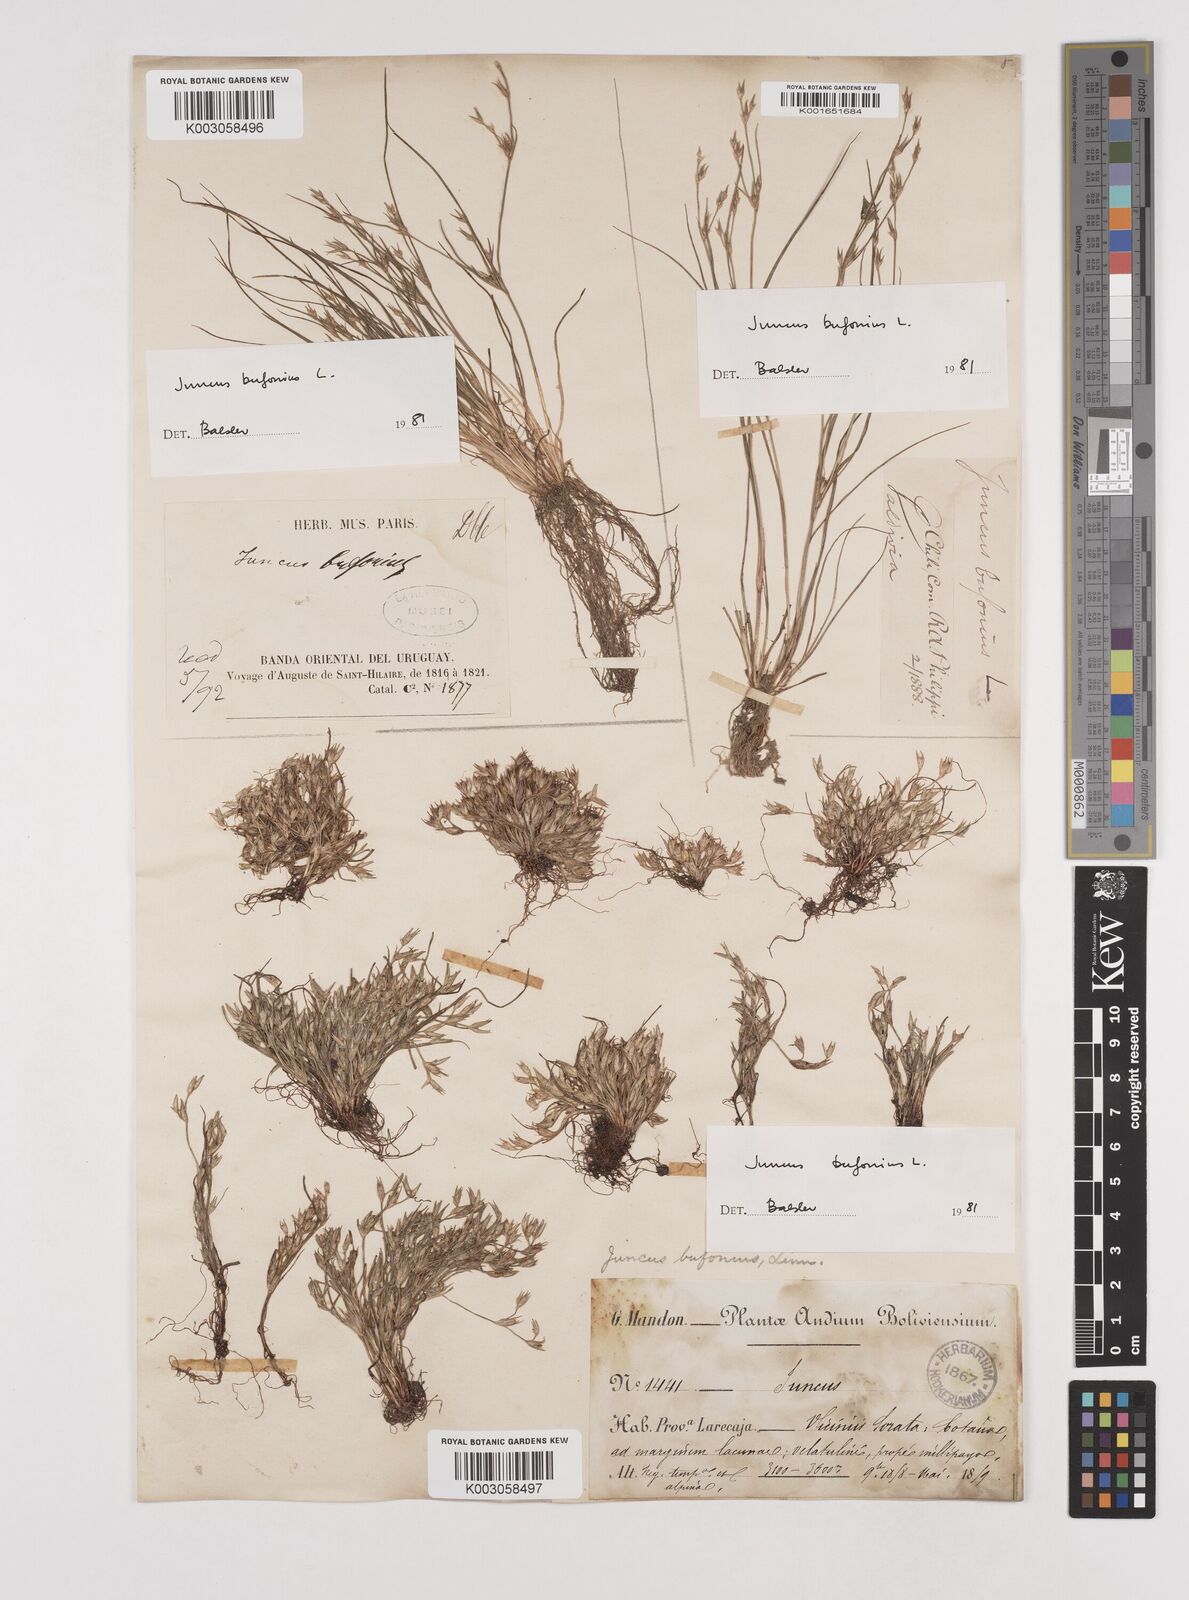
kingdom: Plantae
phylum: Tracheophyta
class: Liliopsida
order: Poales
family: Juncaceae
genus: Juncus
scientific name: Juncus bufonius
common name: Toad rush
